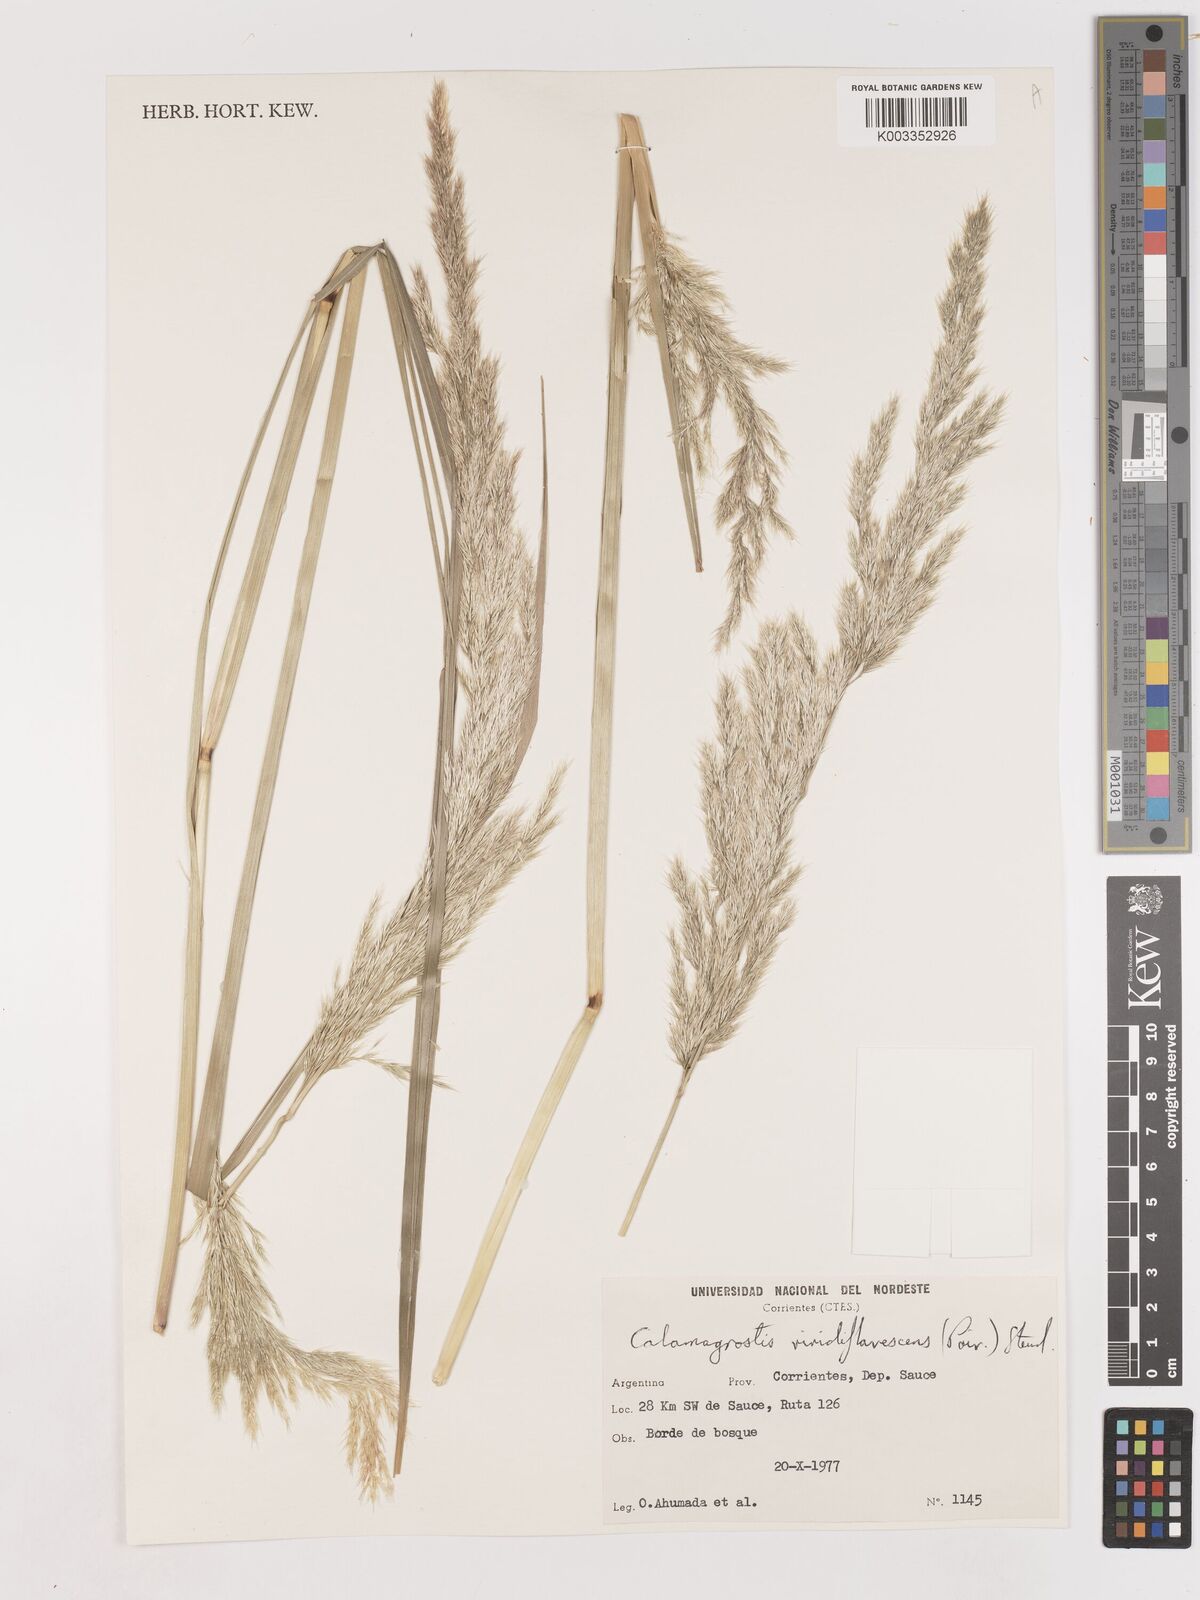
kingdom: Plantae
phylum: Tracheophyta
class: Liliopsida
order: Poales
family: Poaceae
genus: Cinnagrostis
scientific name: Cinnagrostis viridiflavescens
